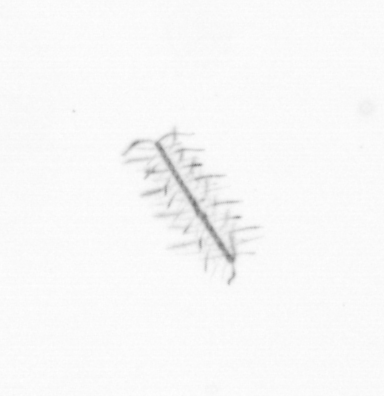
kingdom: Chromista
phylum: Ochrophyta
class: Bacillariophyceae
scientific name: Bacillariophyceae
